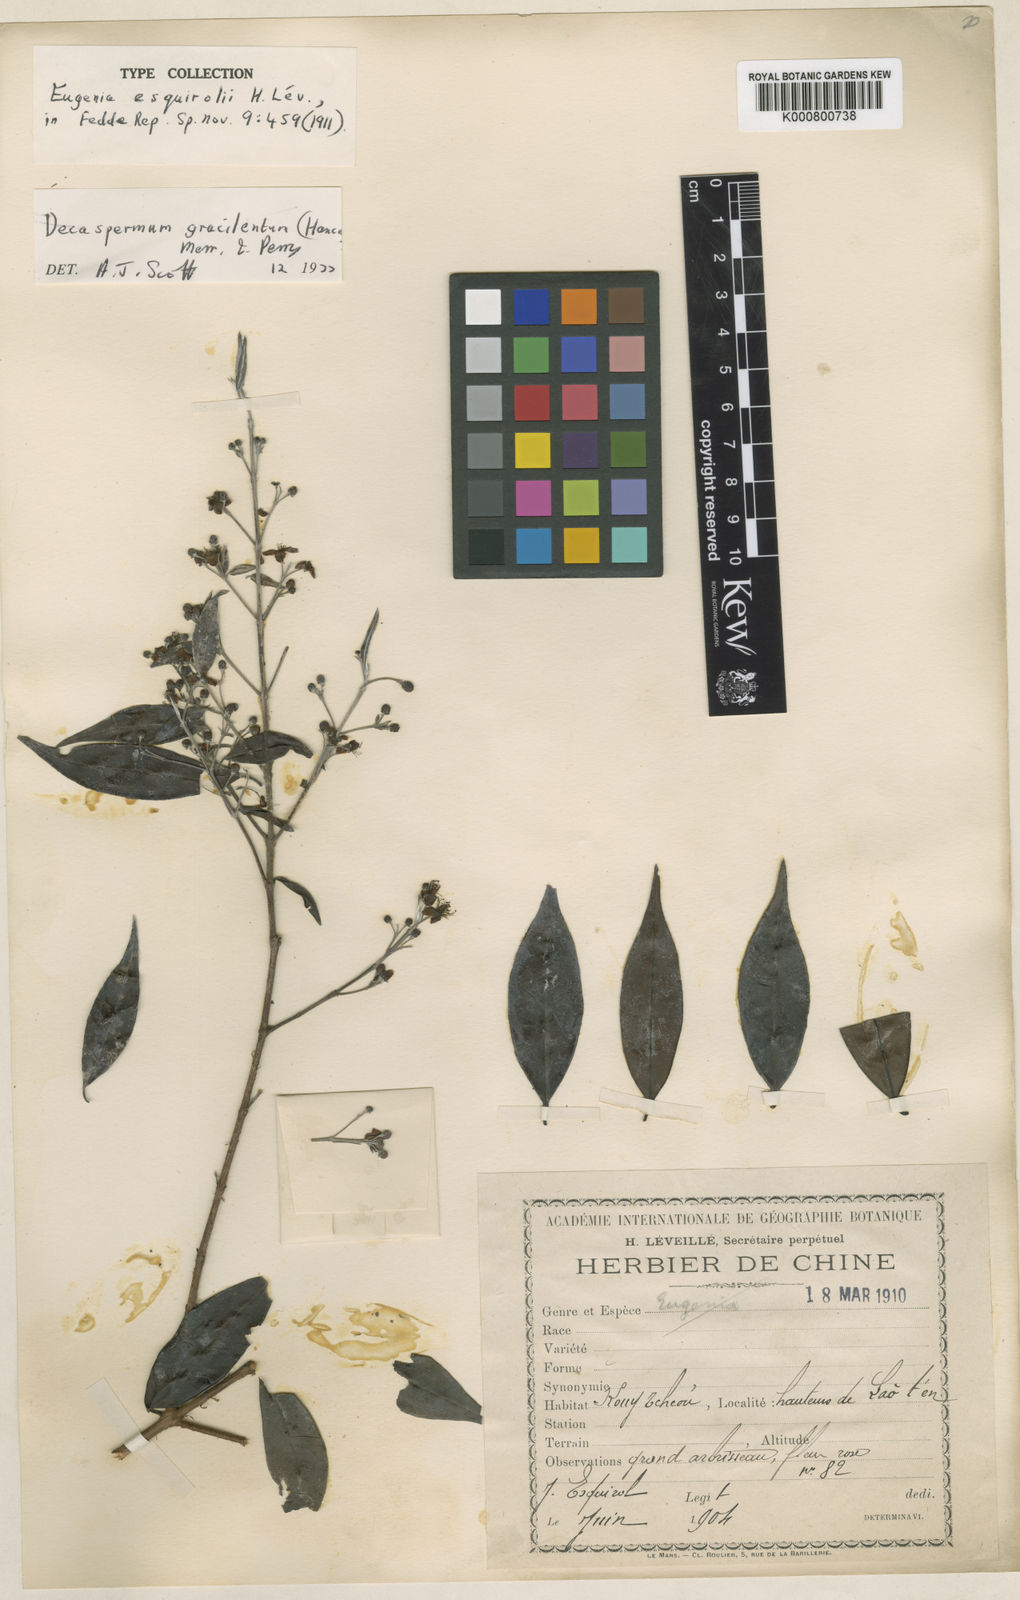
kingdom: Plantae
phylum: Tracheophyta
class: Magnoliopsida
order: Myrtales
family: Myrtaceae
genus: Decaspermum
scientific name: Decaspermum gracilentum
